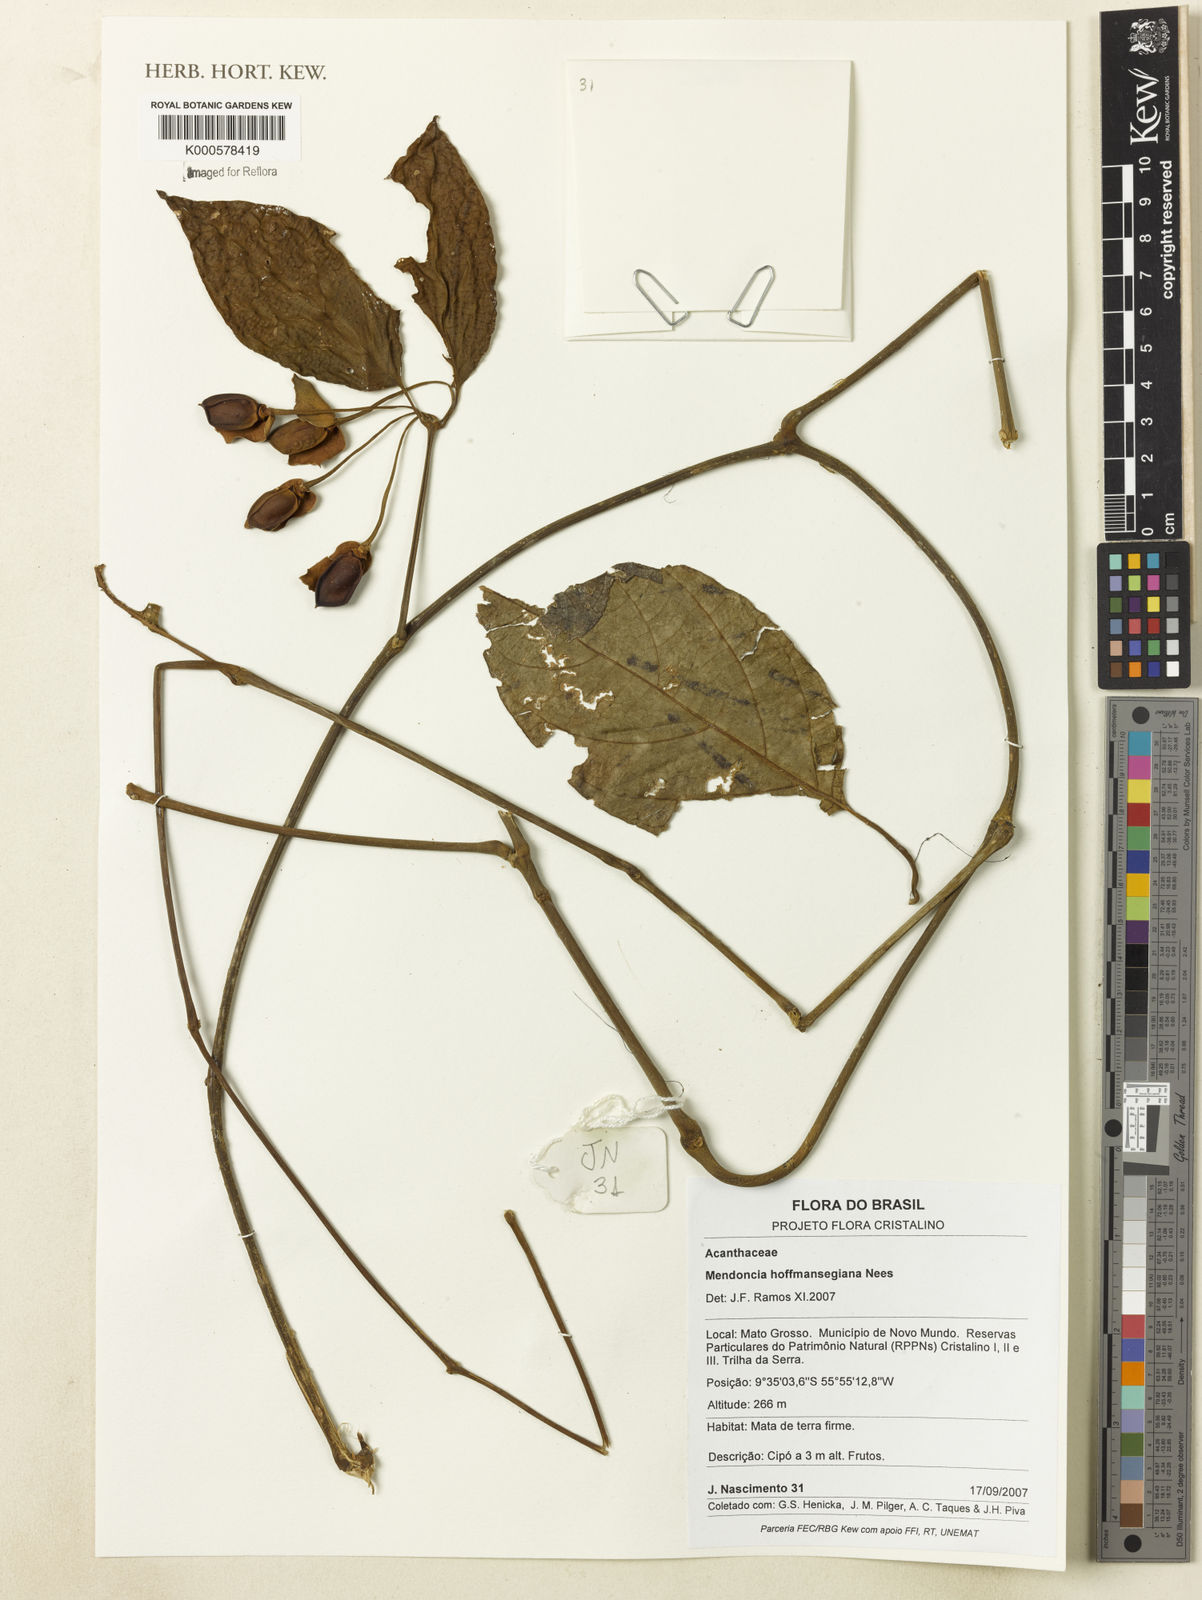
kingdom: Plantae
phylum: Tracheophyta
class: Magnoliopsida
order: Lamiales
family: Acanthaceae
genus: Mendoncia
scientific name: Mendoncia hoffmannseggiana
